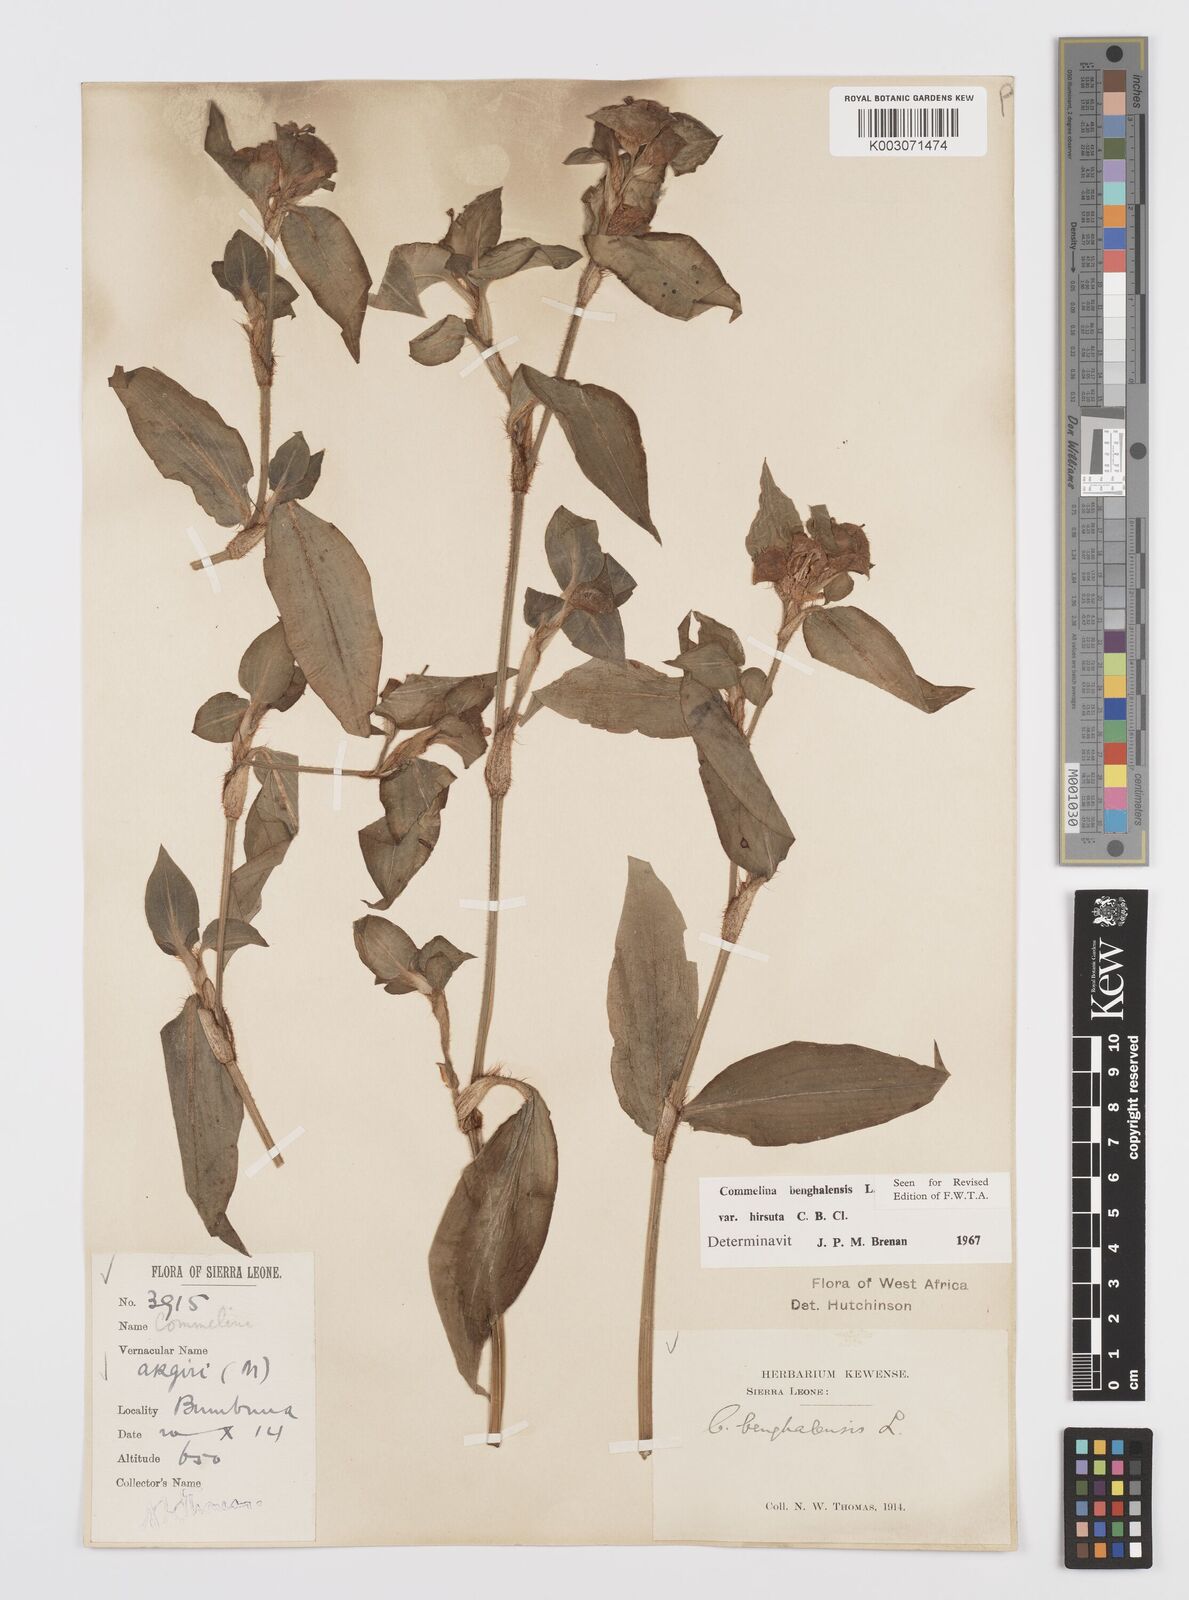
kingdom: Plantae
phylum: Tracheophyta
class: Liliopsida
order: Commelinales
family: Commelinaceae
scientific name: Commelinaceae
